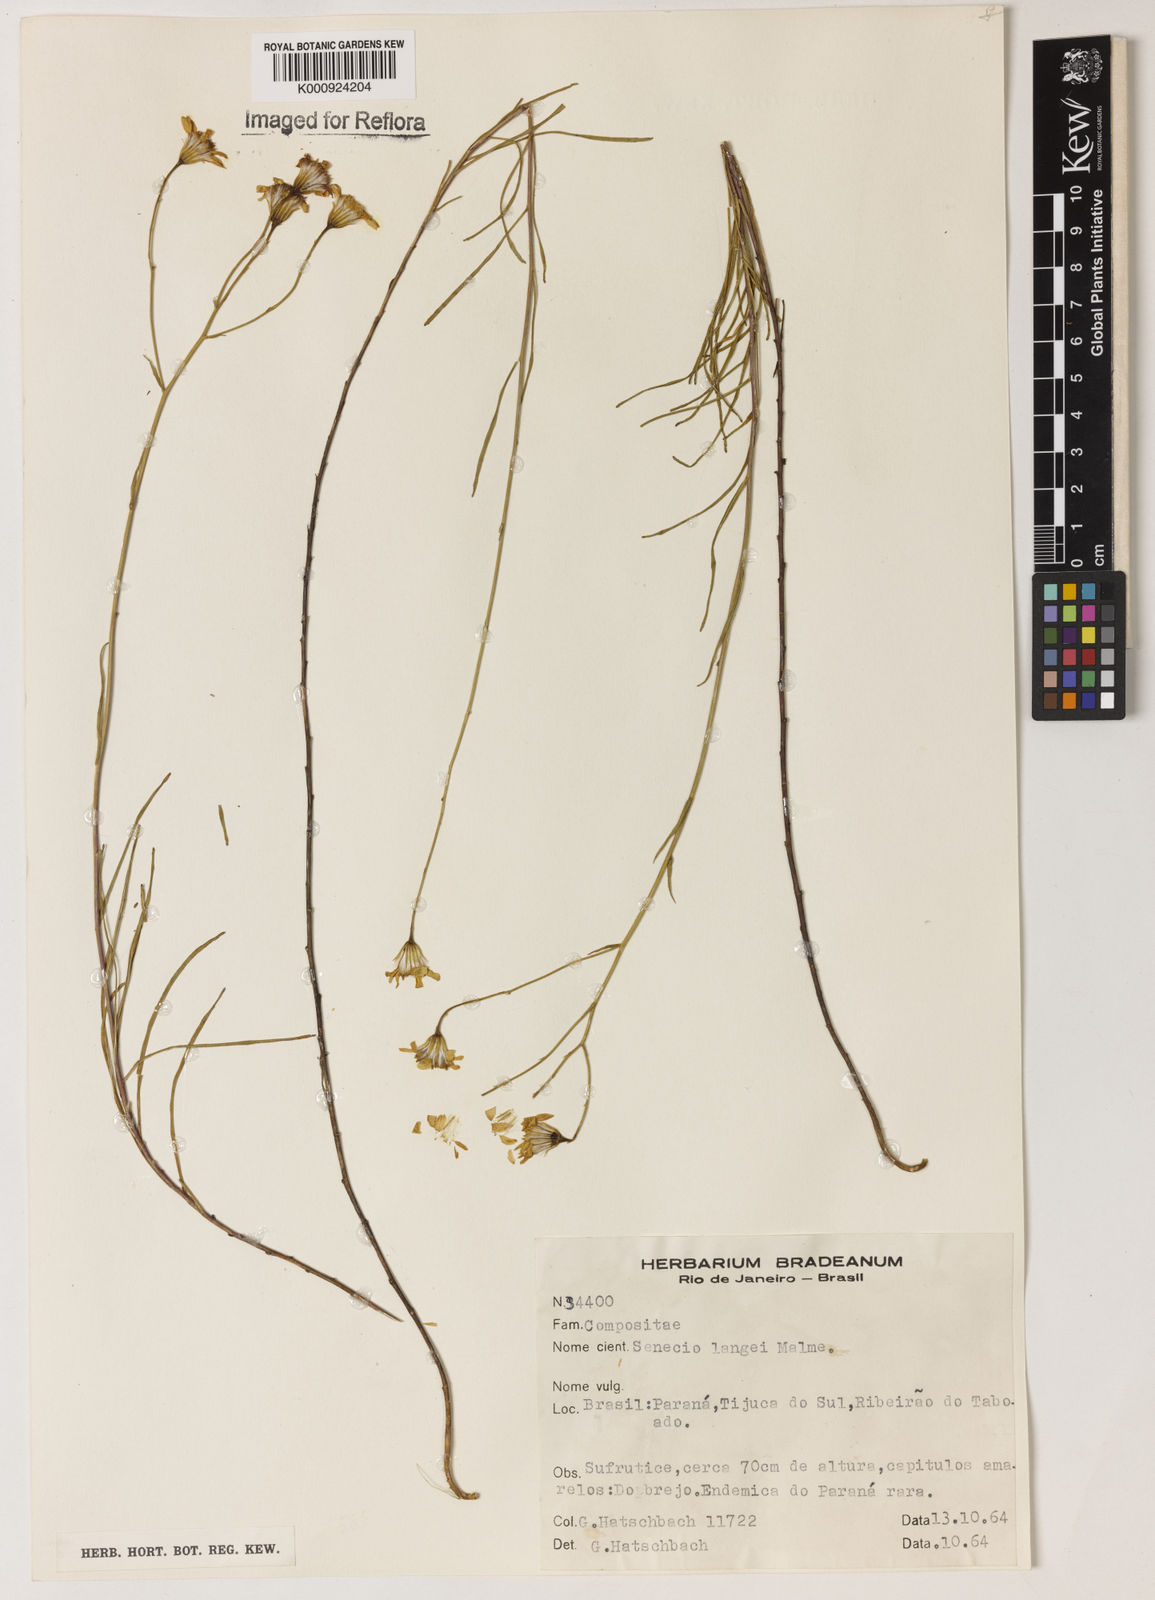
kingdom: Plantae
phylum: Tracheophyta
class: Magnoliopsida
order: Asterales
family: Asteraceae
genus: Senecio
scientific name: Senecio langei
